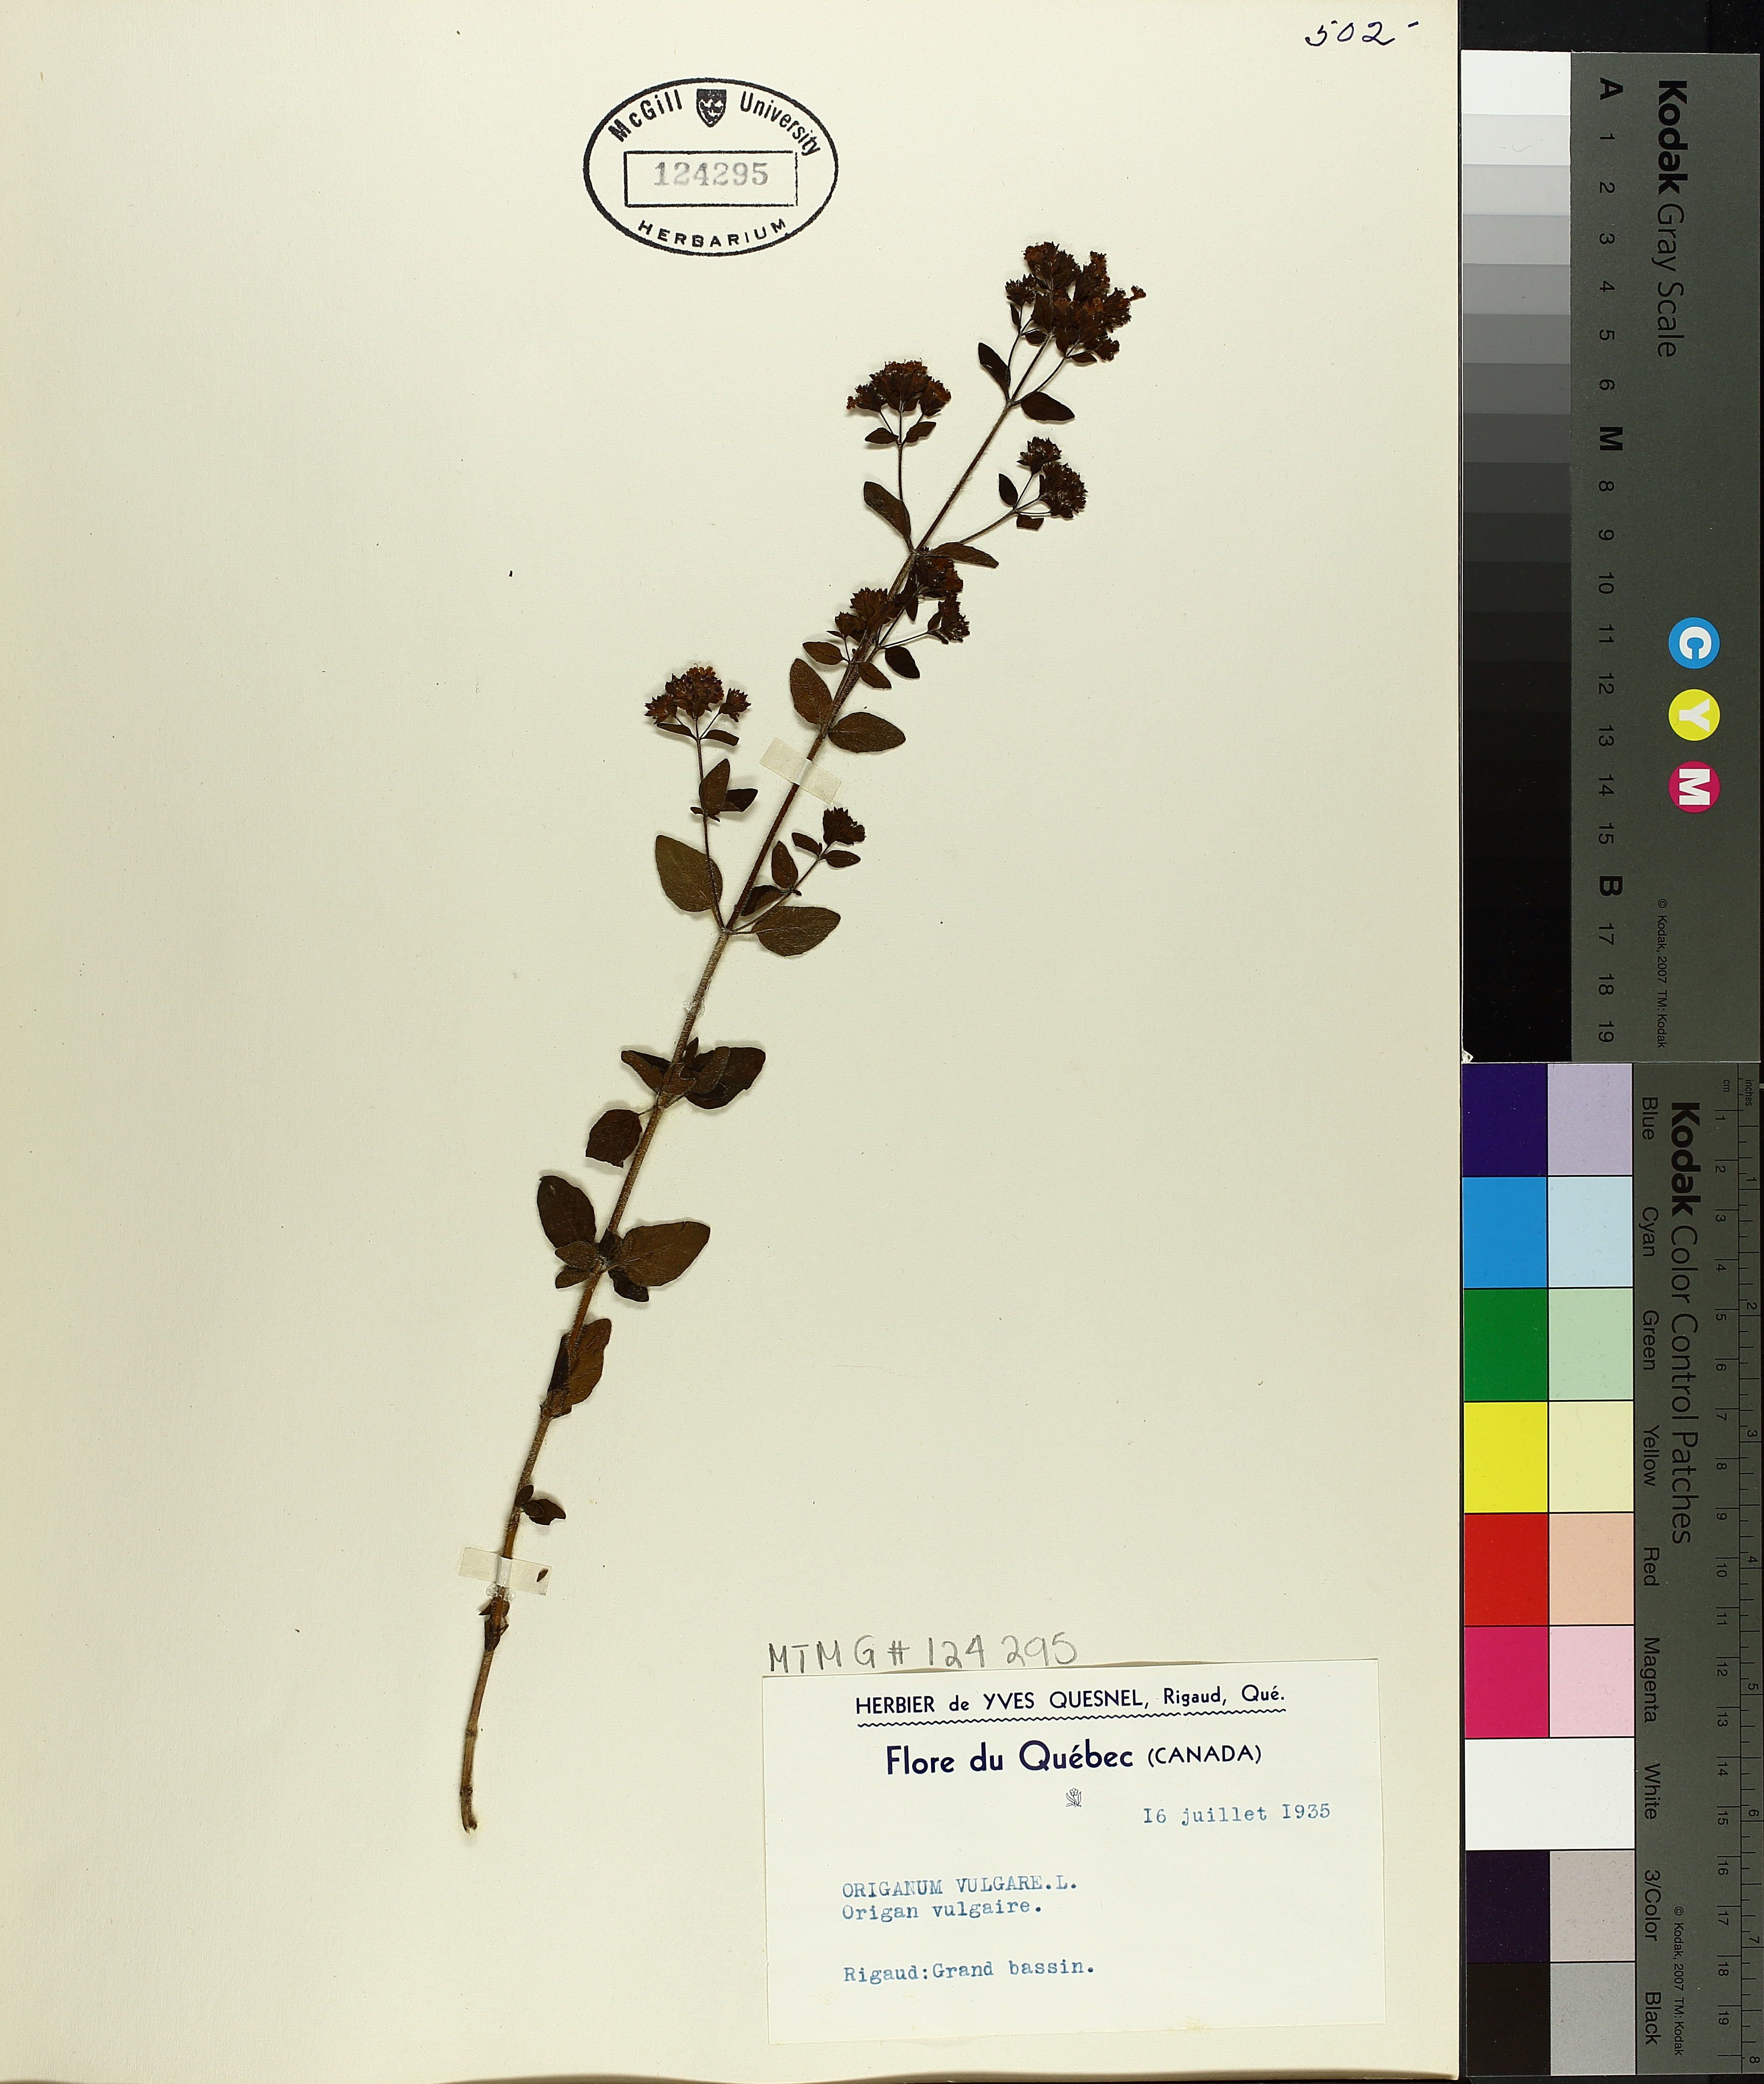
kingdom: Plantae
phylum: Tracheophyta
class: Magnoliopsida
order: Lamiales
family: Lamiaceae
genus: Origanum
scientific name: Origanum vulgare
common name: Wild marjoram
